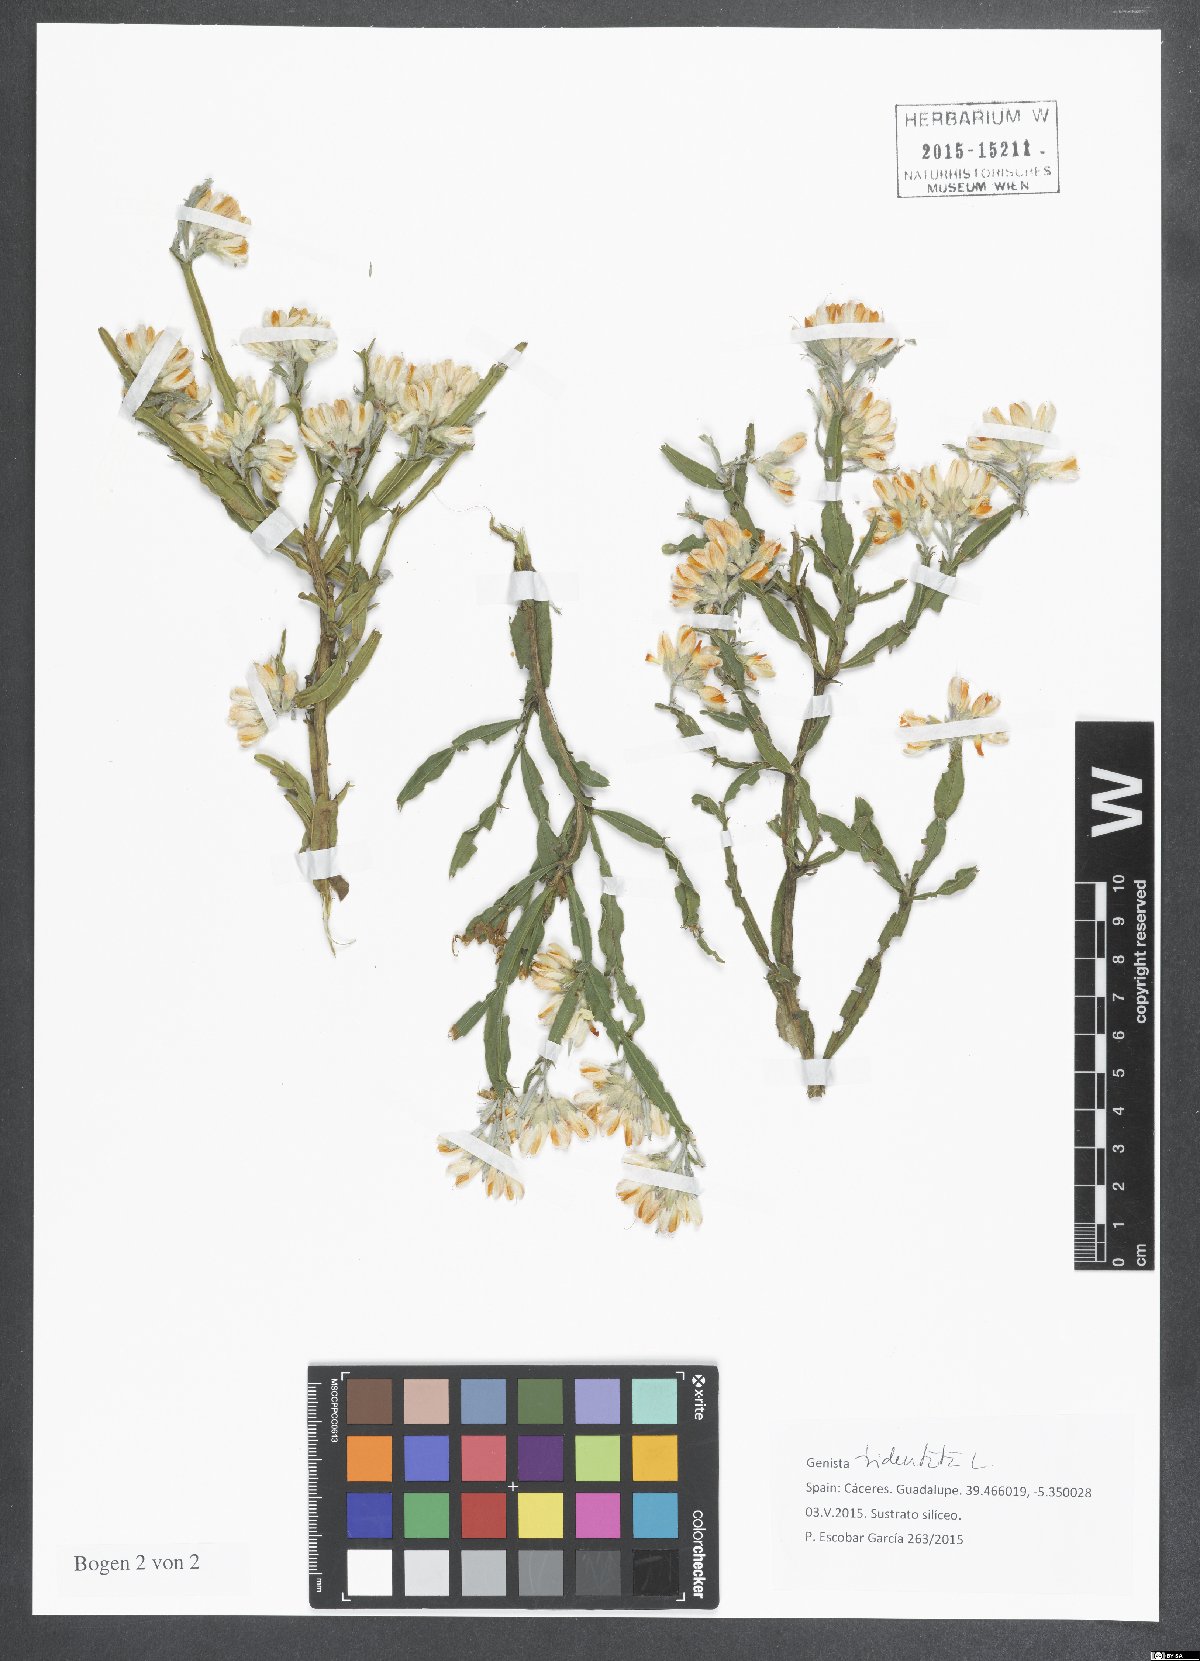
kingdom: Plantae
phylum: Tracheophyta
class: Magnoliopsida
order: Fabales
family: Fabaceae
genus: Genista
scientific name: Genista tridentata
